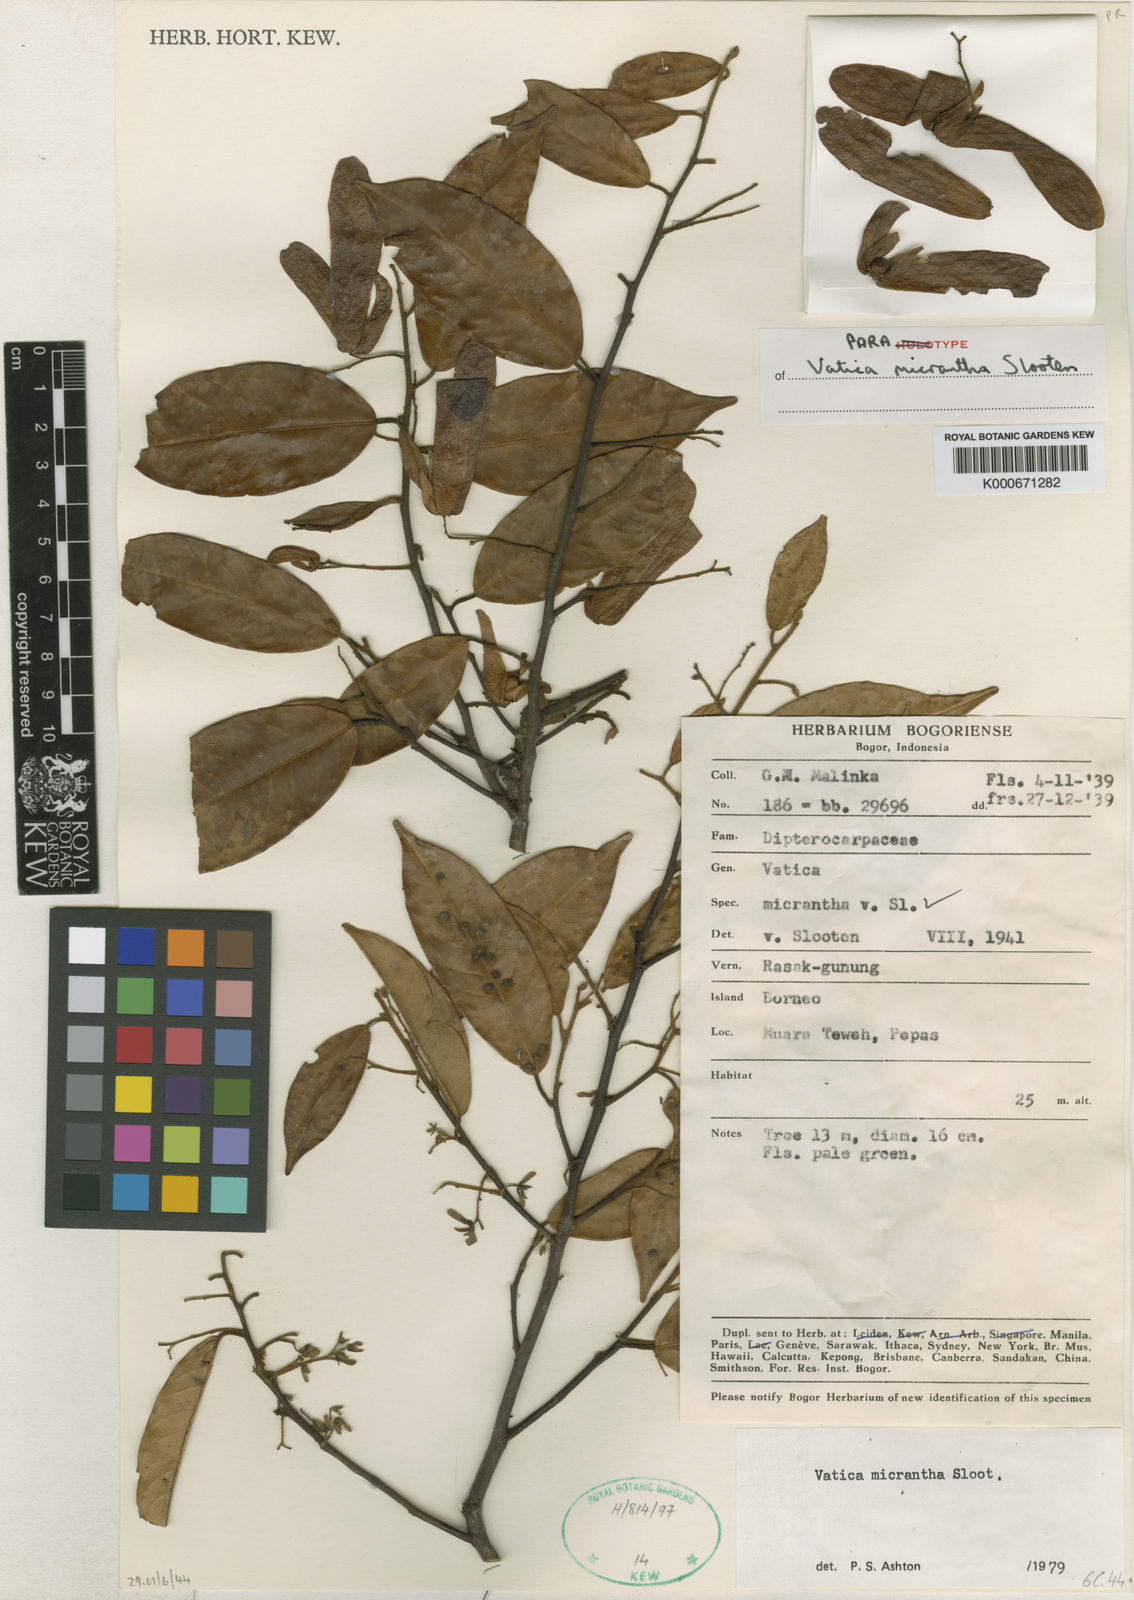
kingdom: Plantae
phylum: Tracheophyta
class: Magnoliopsida
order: Malvales
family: Dipterocarpaceae
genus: Vatica
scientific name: Vatica micrantha
